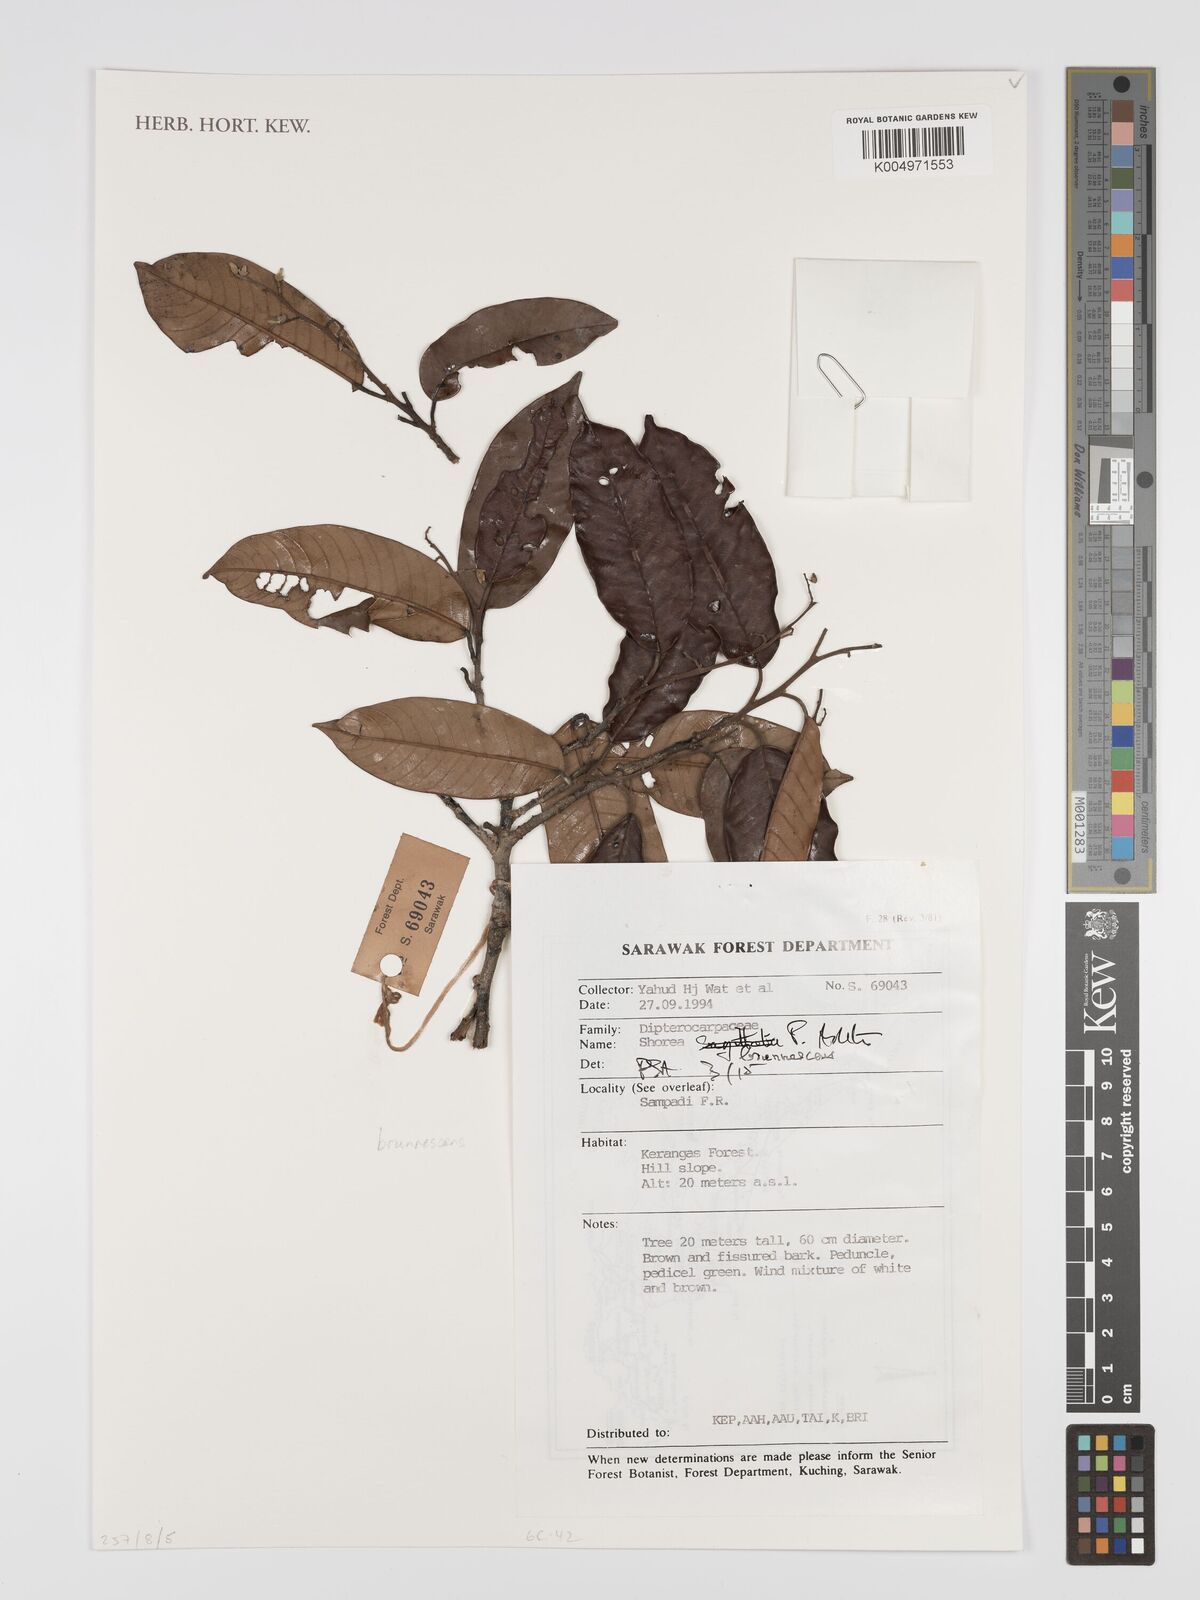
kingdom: Plantae
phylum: Tracheophyta
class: Magnoliopsida
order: Malvales
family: Dipterocarpaceae
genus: Shorea
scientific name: Shorea brunnescens
